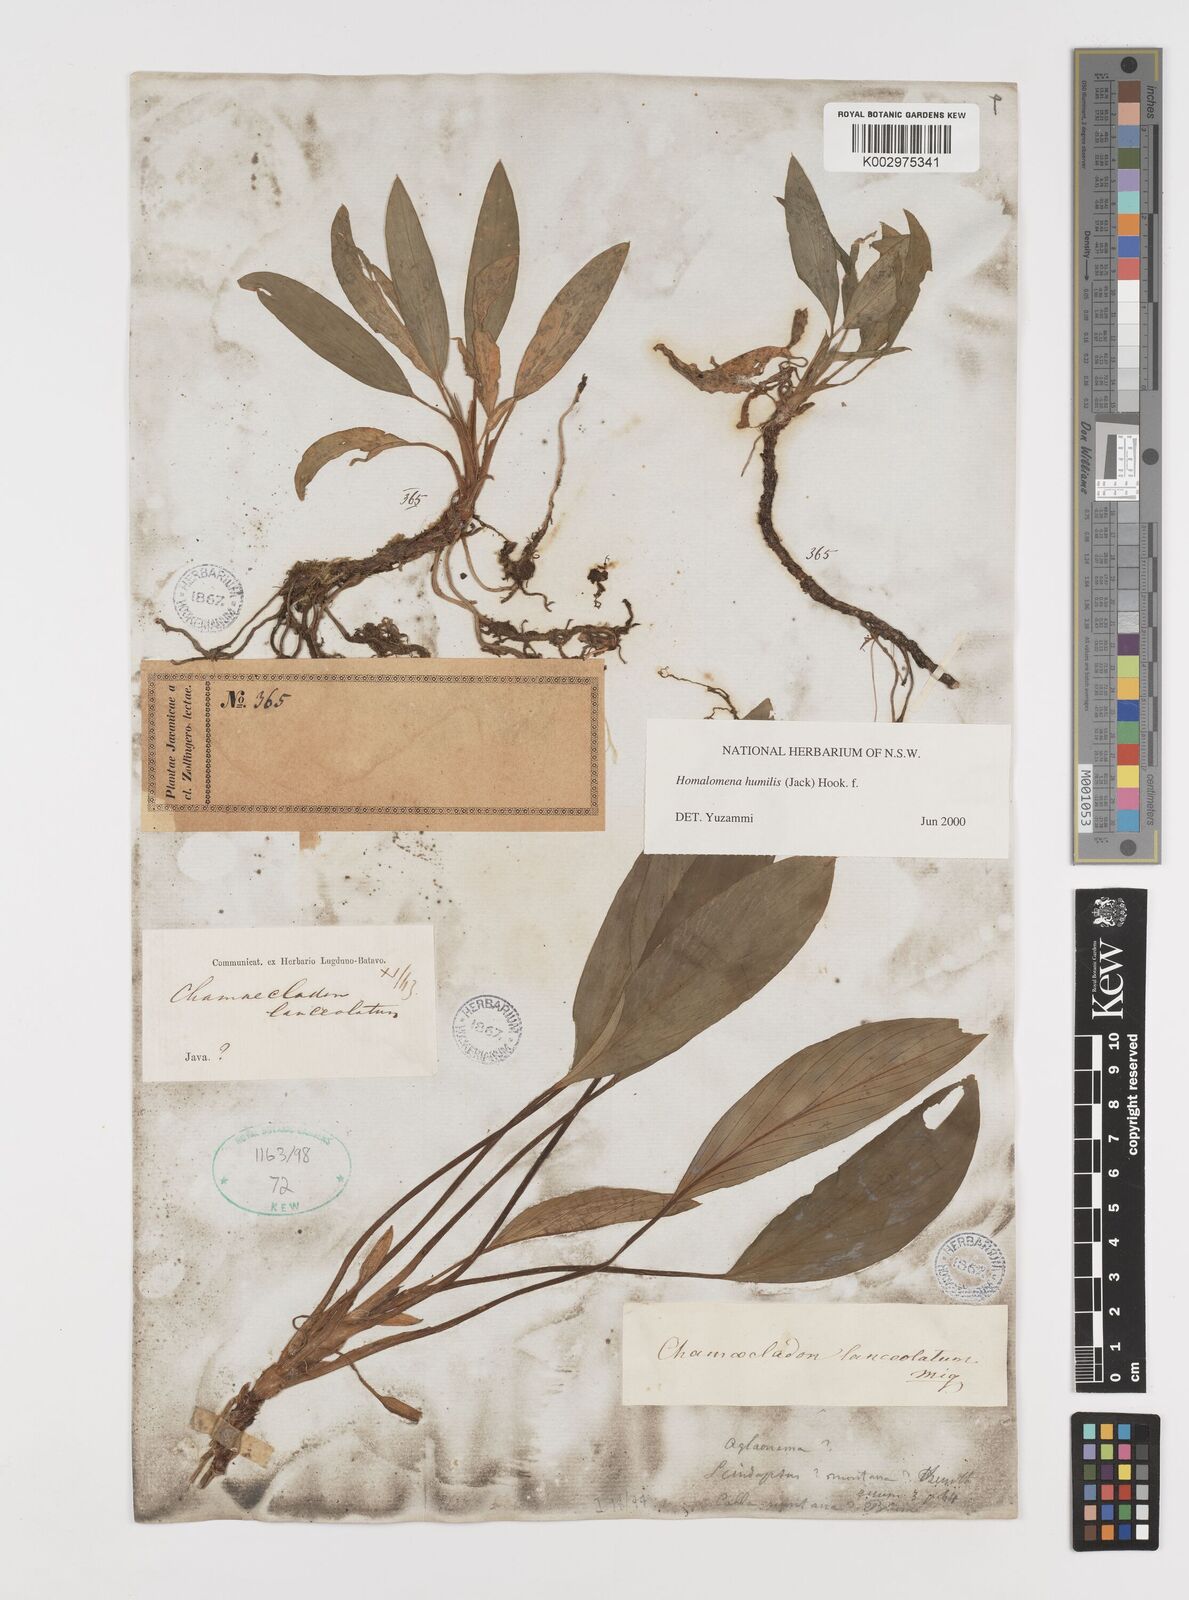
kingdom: Plantae
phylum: Tracheophyta
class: Liliopsida
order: Alismatales
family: Araceae
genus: Homalomena
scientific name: Homalomena humilis
